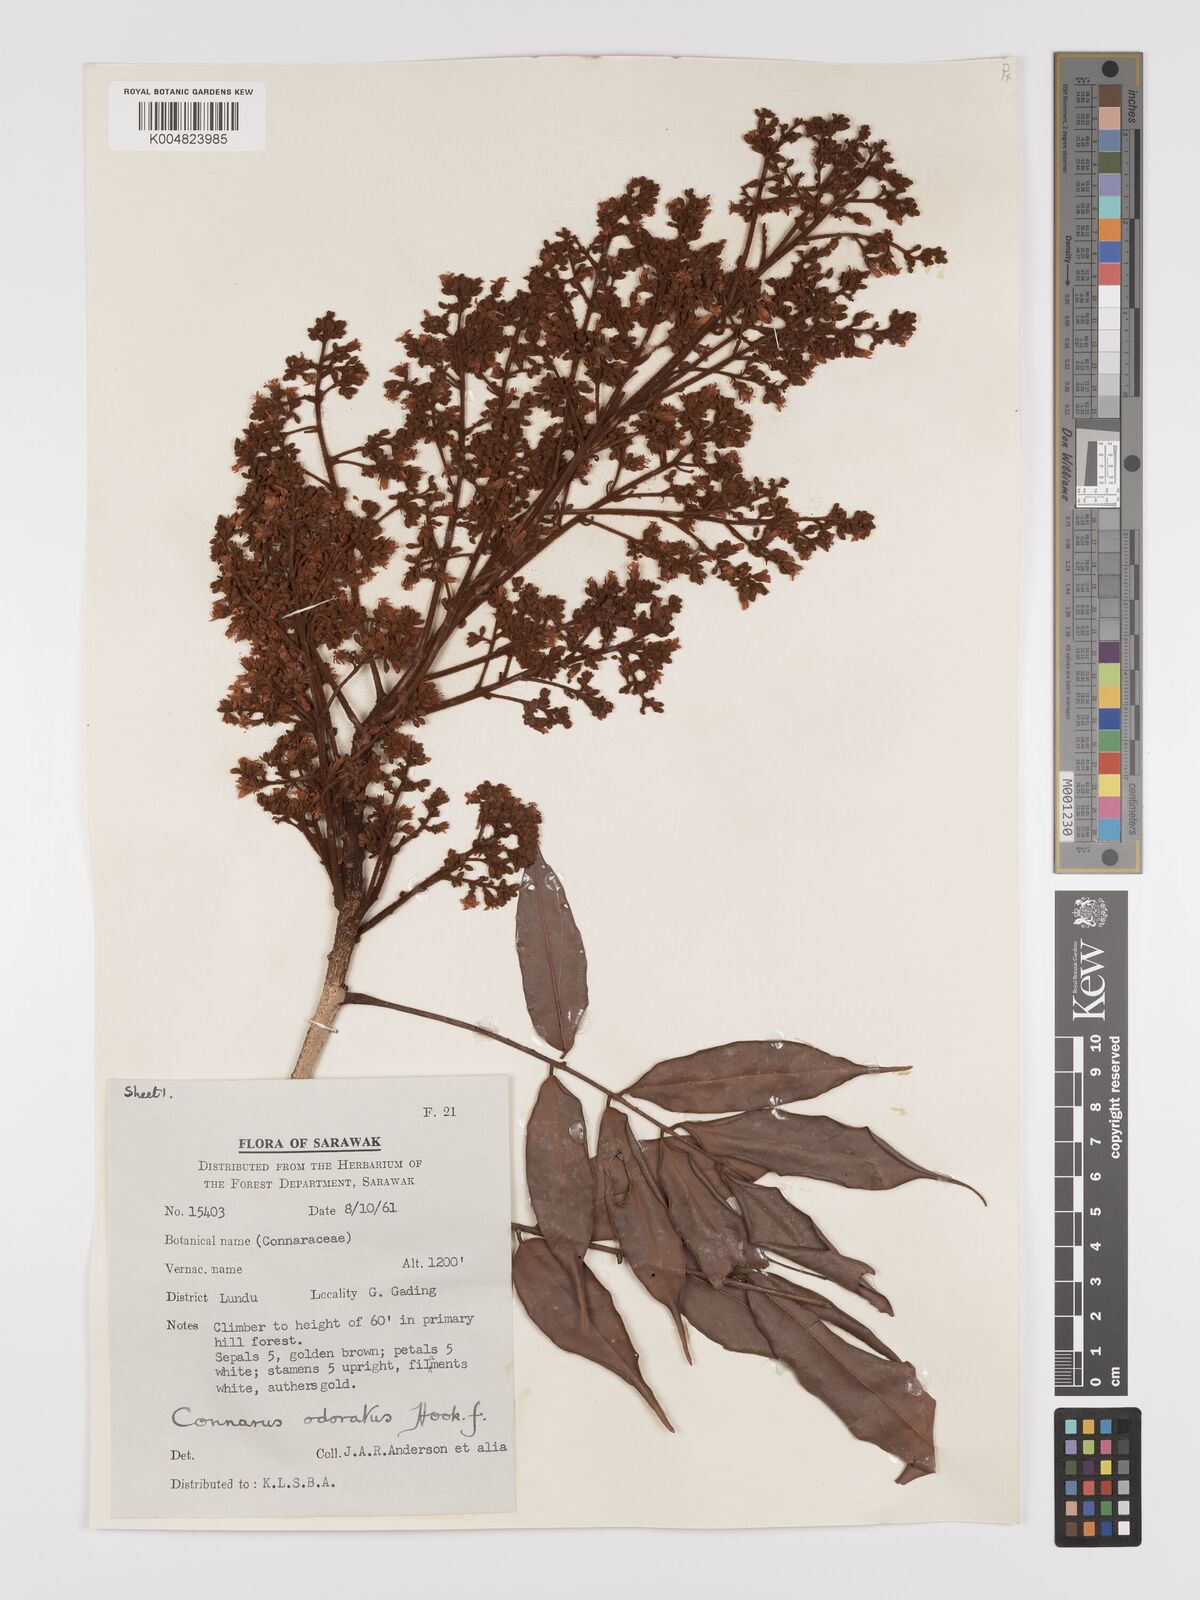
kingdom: Plantae
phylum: Tracheophyta
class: Magnoliopsida
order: Oxalidales
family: Connaraceae
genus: Connarus
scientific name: Connarus odoratus
